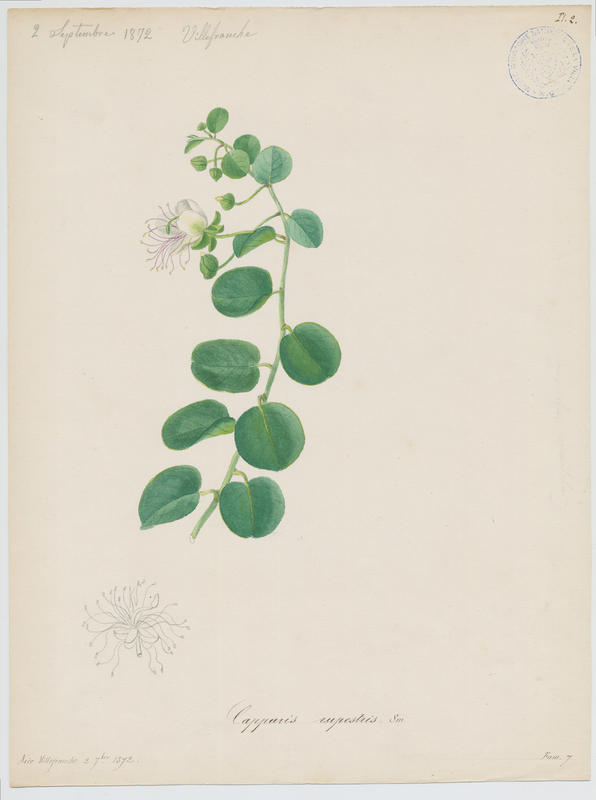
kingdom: Plantae
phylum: Tracheophyta
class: Magnoliopsida
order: Brassicales
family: Capparaceae
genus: Capparis
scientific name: Capparis spinosa
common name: Caper
